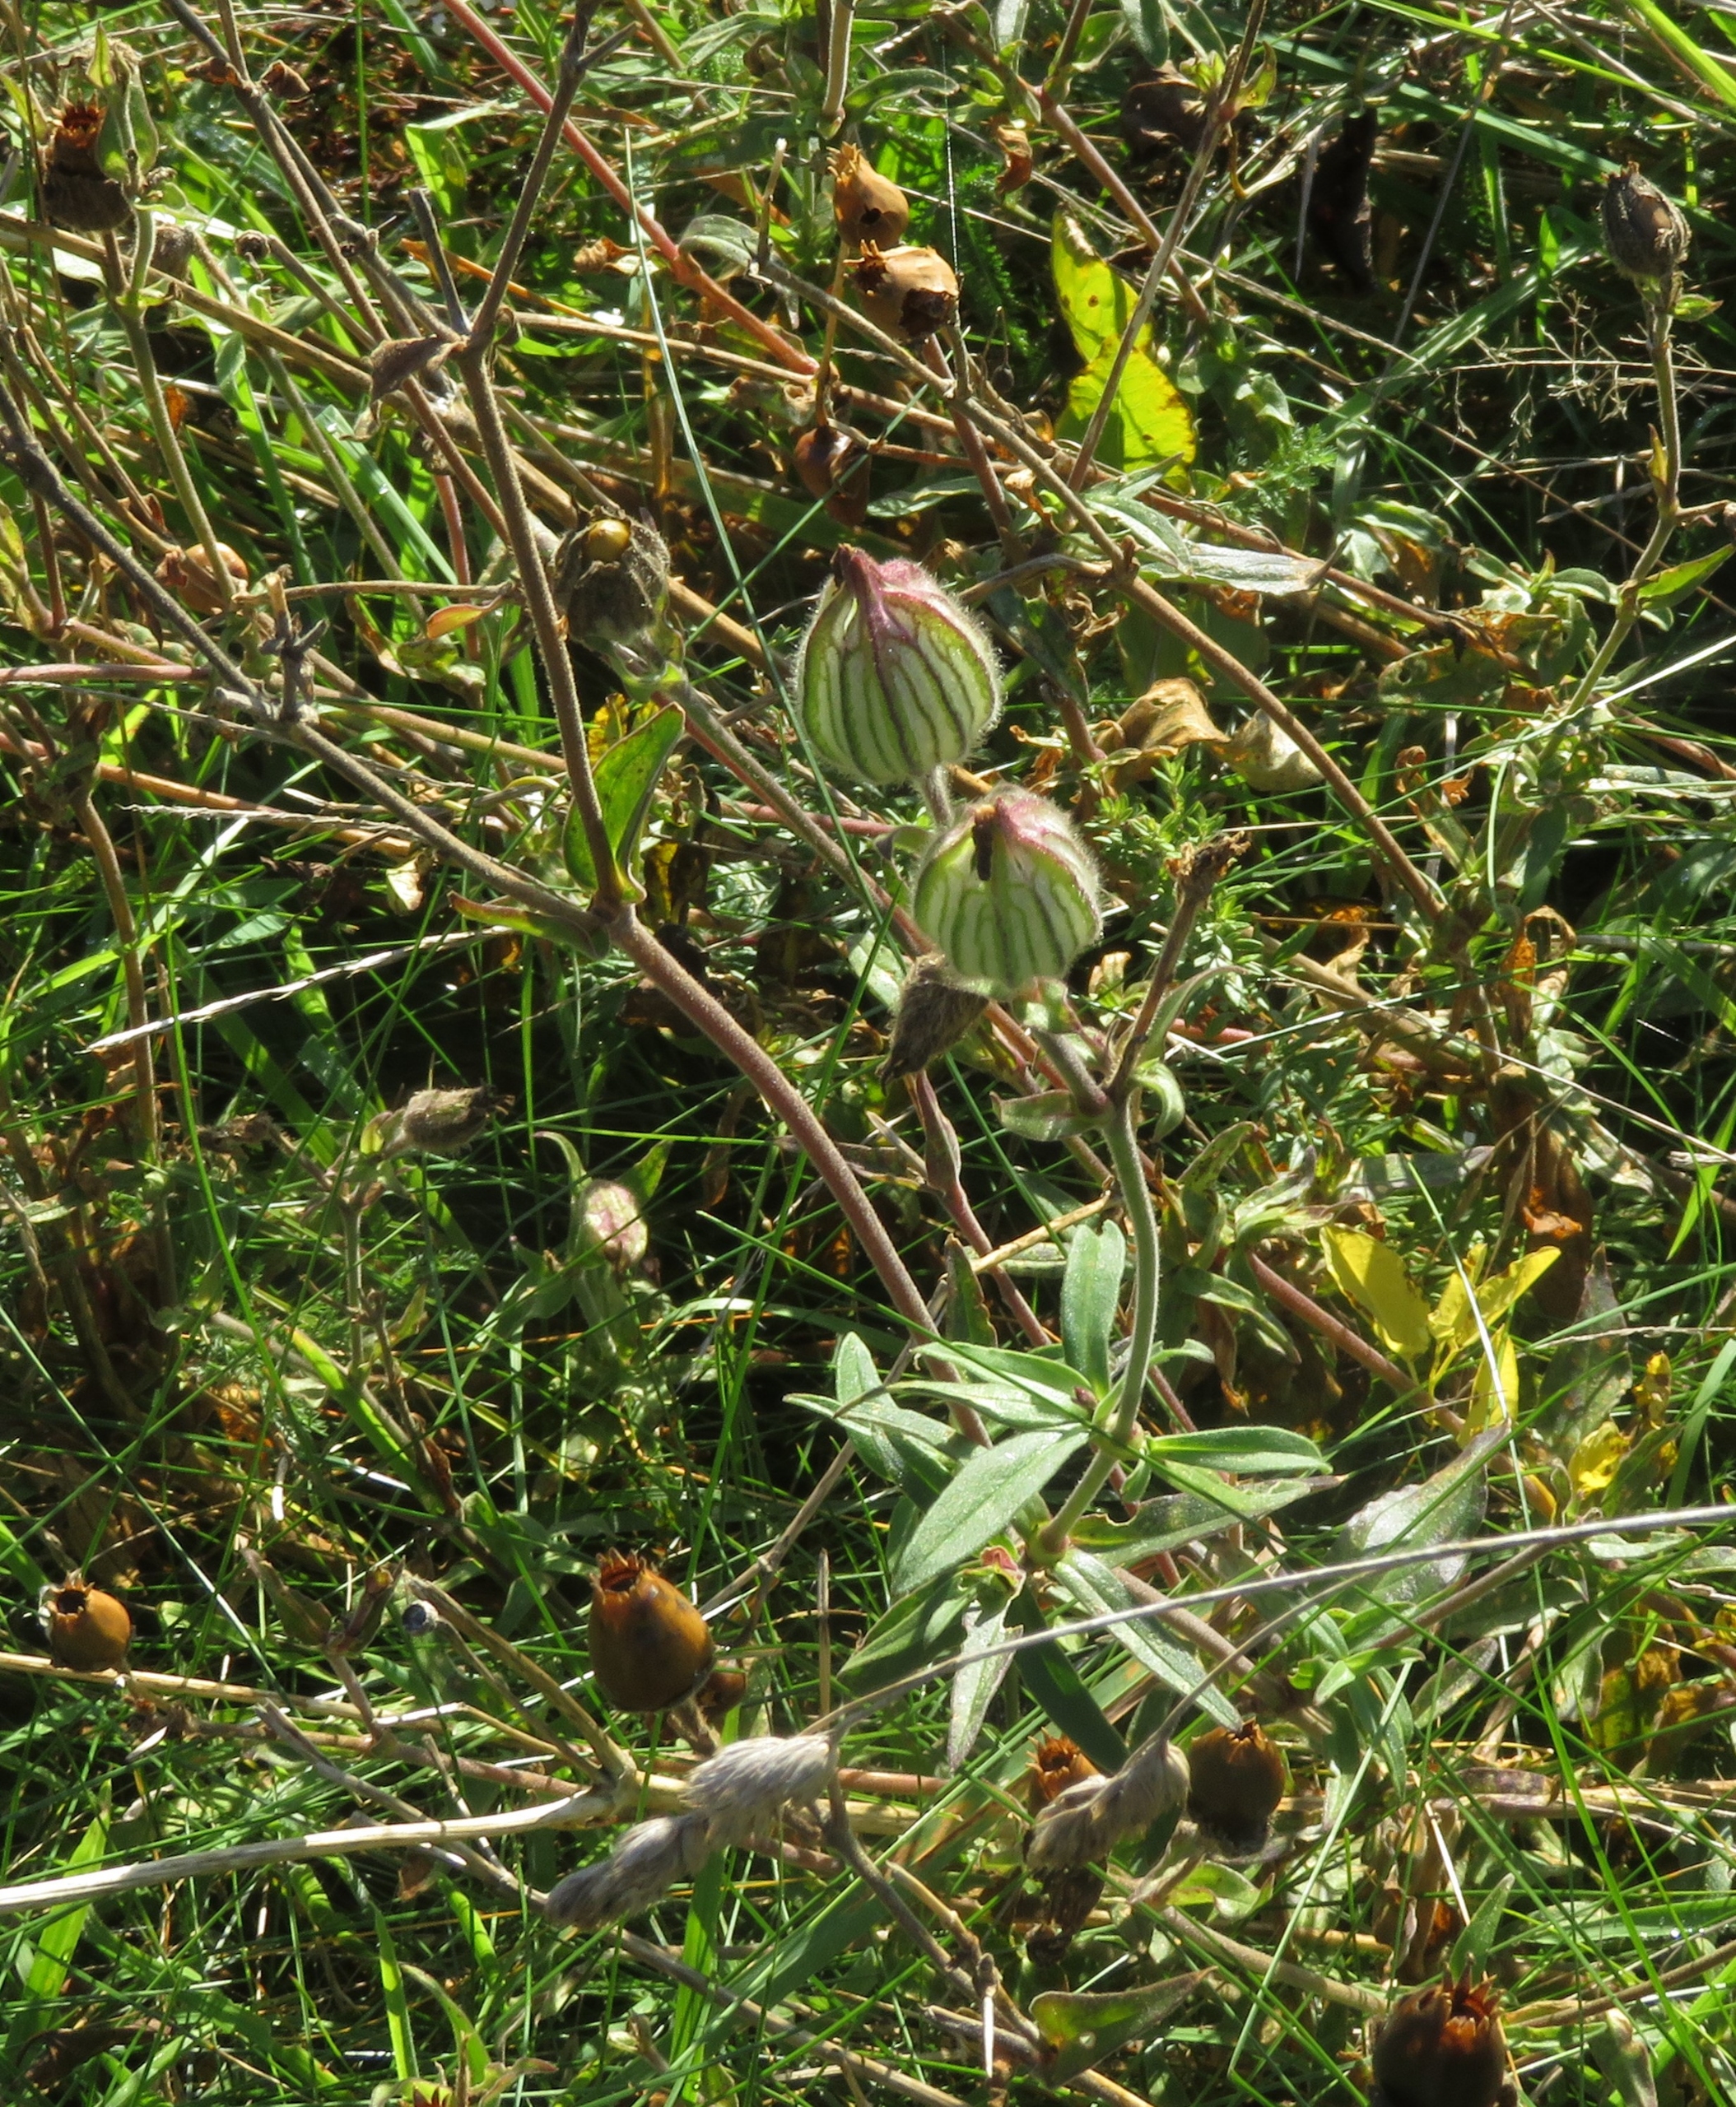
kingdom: Plantae
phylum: Tracheophyta
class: Magnoliopsida
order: Caryophyllales
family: Caryophyllaceae
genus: Silene
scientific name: Silene latifolia
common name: Aftenpragtstjerne
